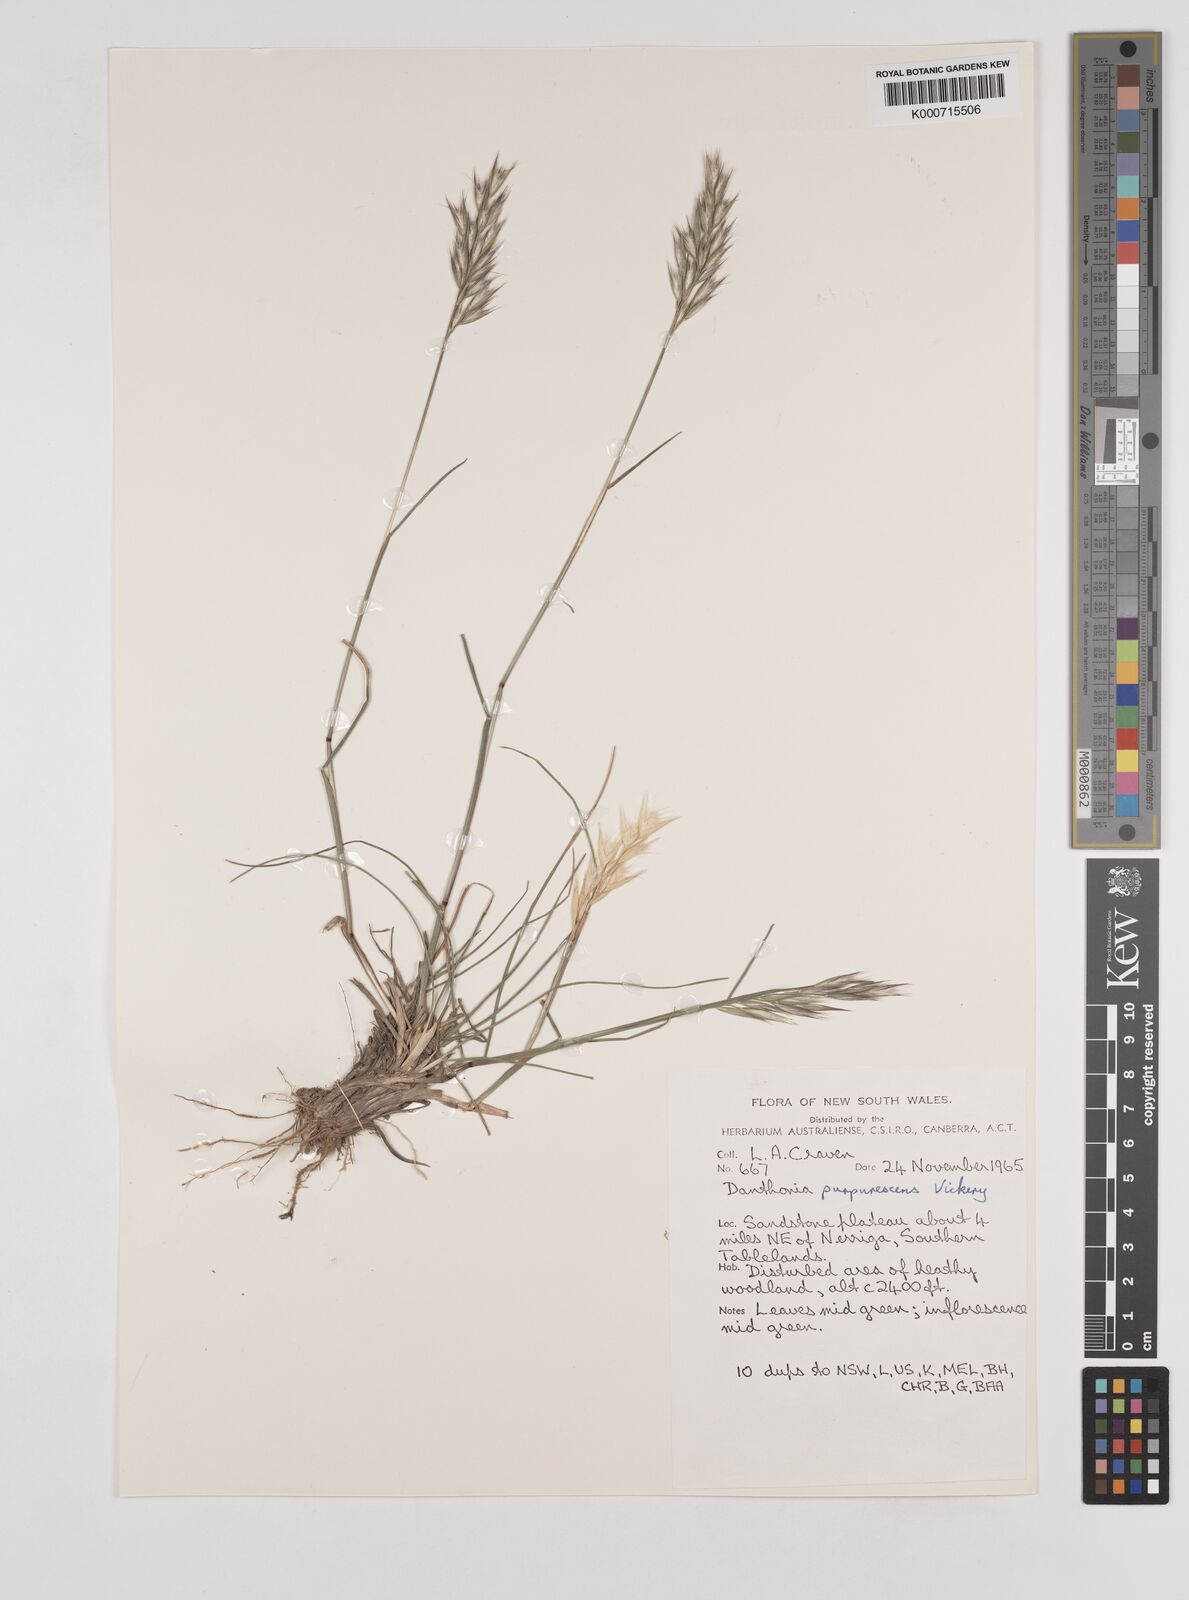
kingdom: Plantae
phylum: Tracheophyta
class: Liliopsida
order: Poales
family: Poaceae
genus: Rytidosperma
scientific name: Rytidosperma tenuius
